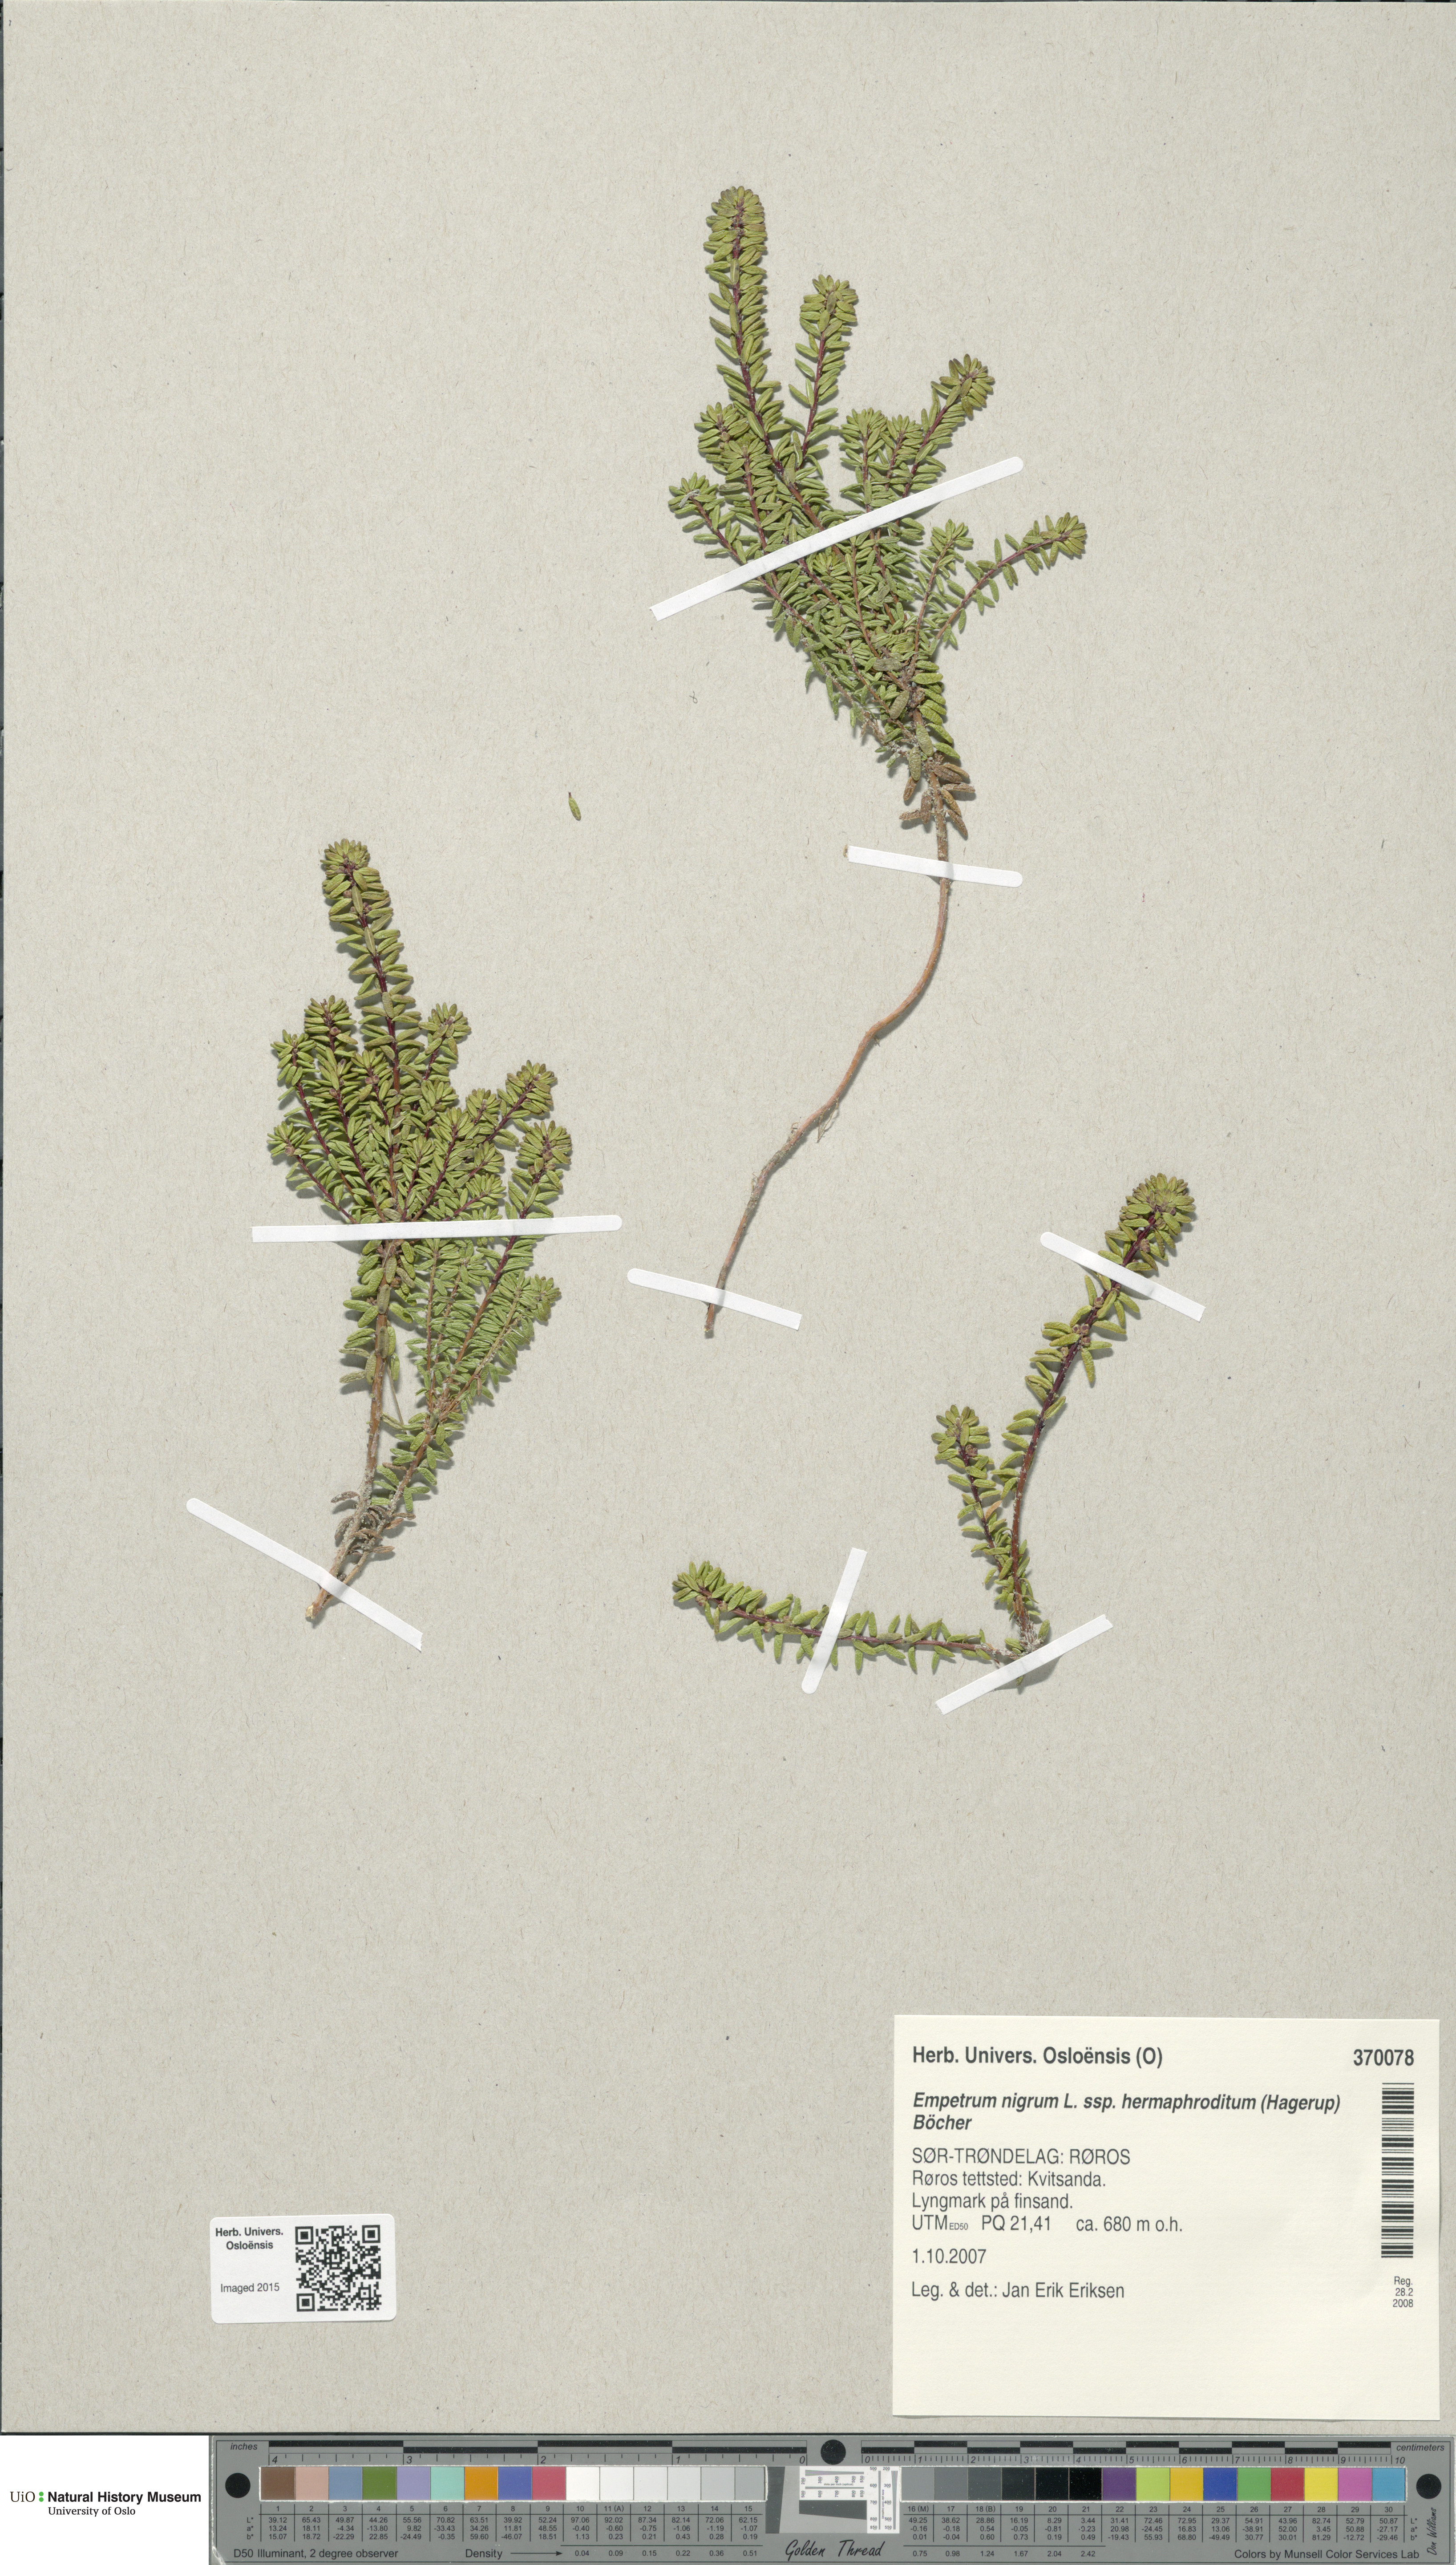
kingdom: Plantae
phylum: Tracheophyta
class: Magnoliopsida
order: Ericales
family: Ericaceae
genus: Empetrum
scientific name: Empetrum hermaphroditum
